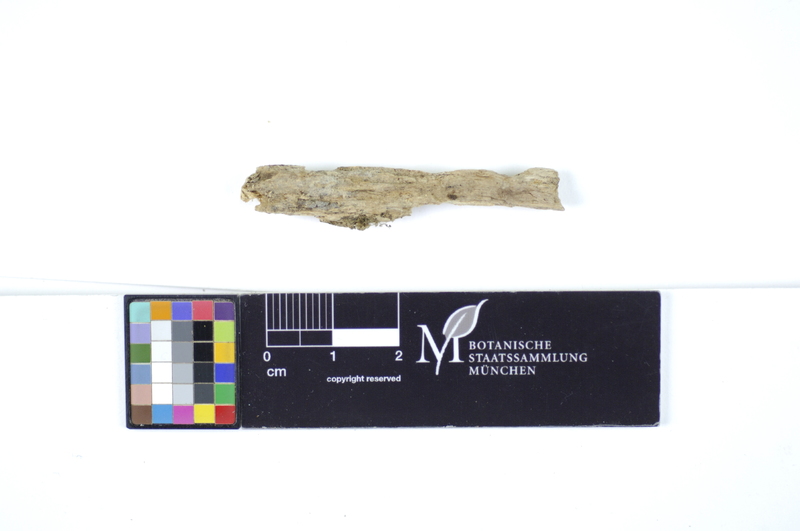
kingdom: Fungi
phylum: Basidiomycota
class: Agaricomycetes
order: Polyporales
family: Hyphodermataceae
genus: Hyphoderma
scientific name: Hyphoderma obtusum
